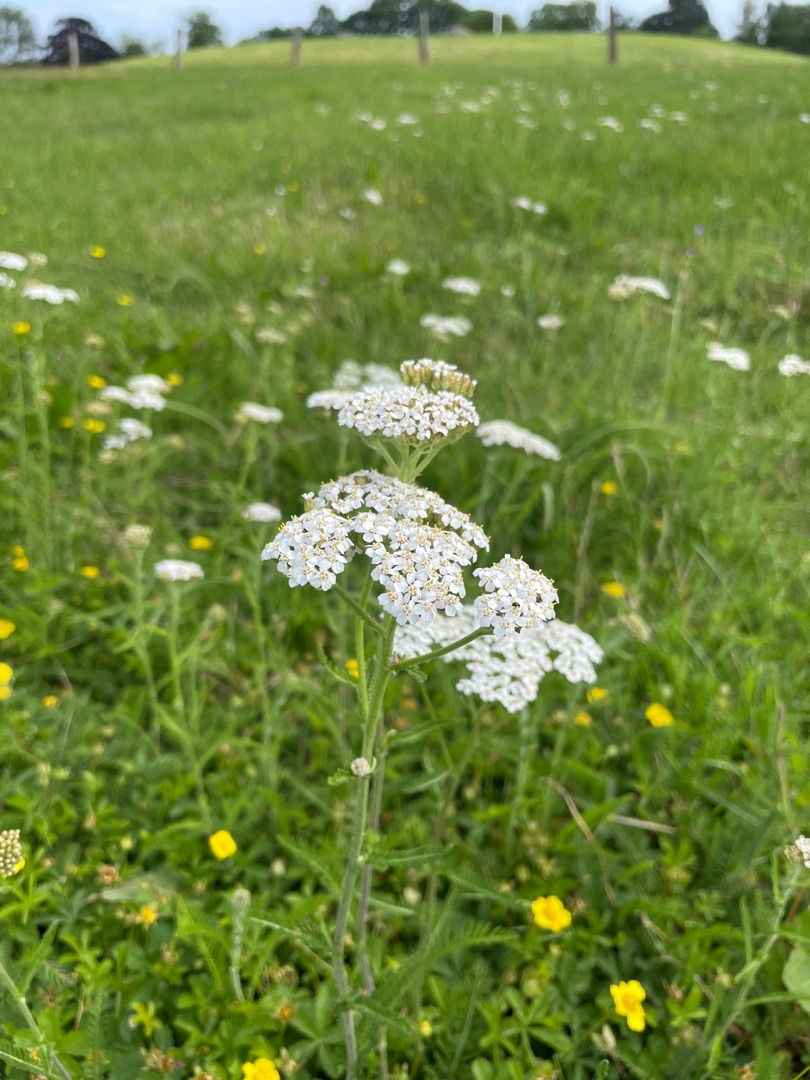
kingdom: Plantae
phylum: Tracheophyta
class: Magnoliopsida
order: Asterales
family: Asteraceae
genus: Achillea
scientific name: Achillea millefolium
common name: Almindelig røllike
